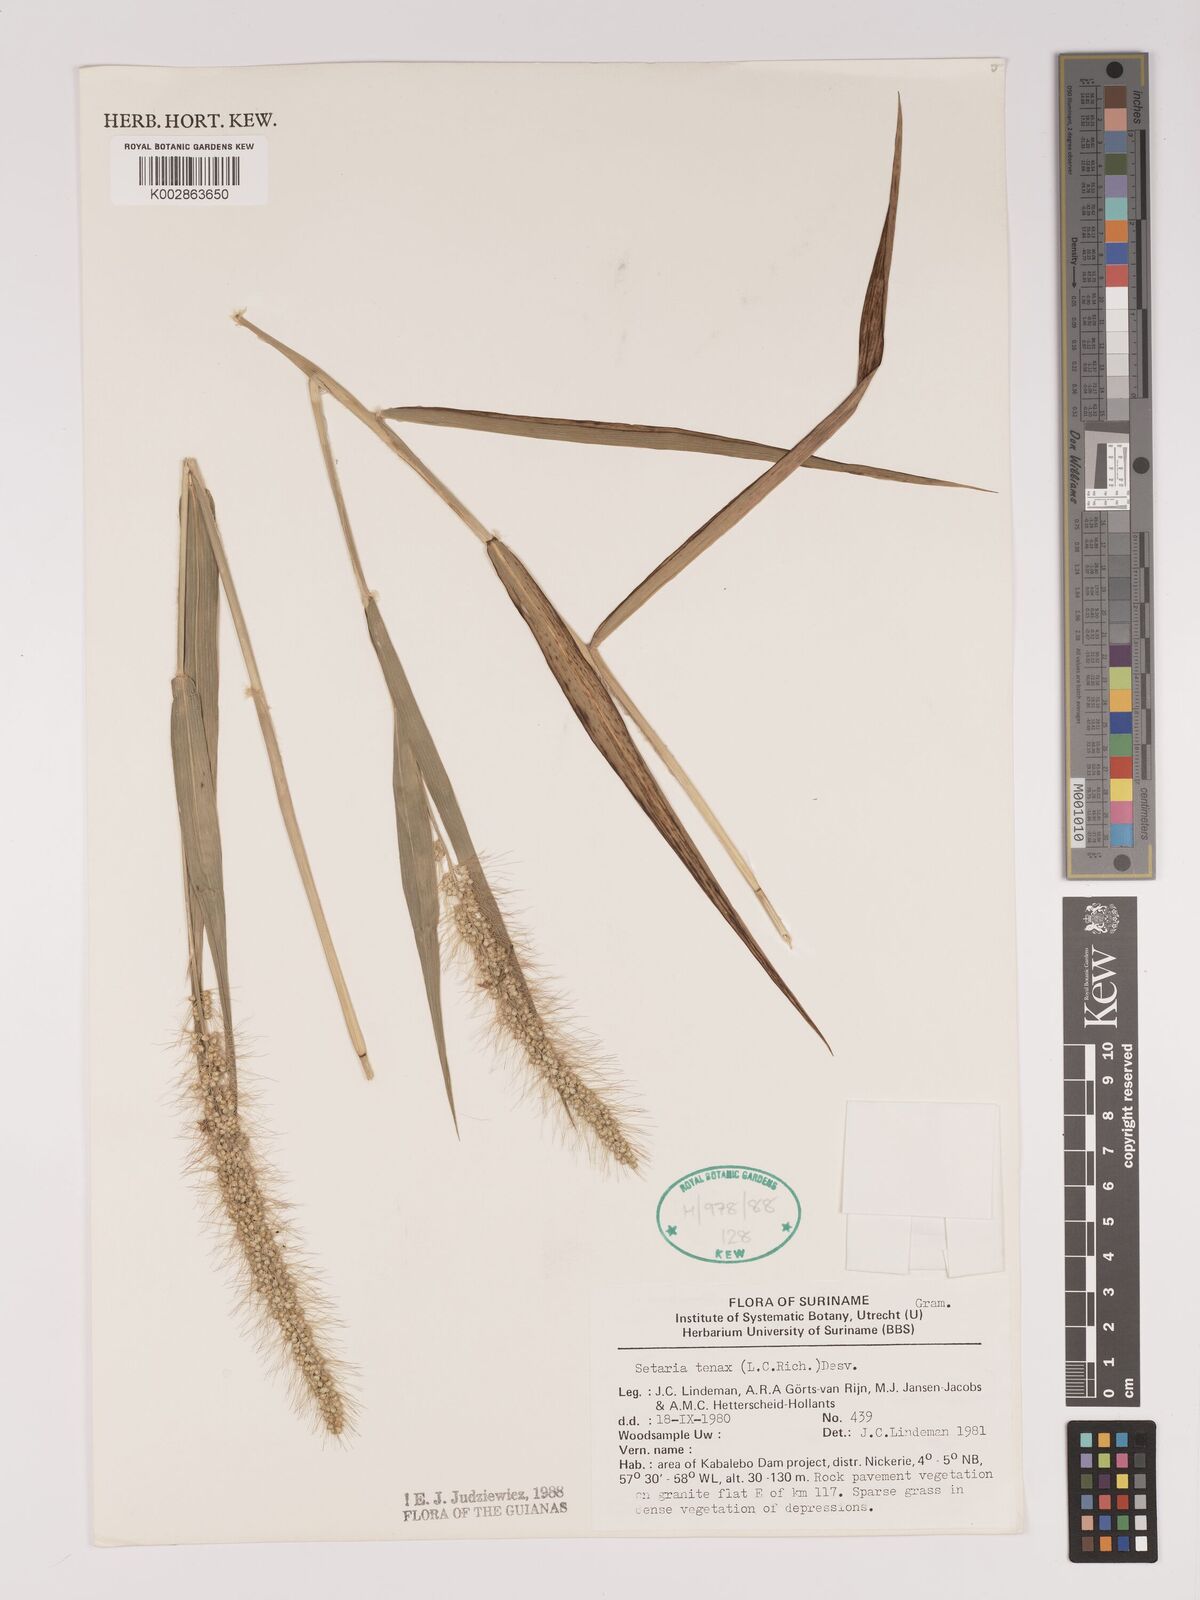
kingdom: Plantae
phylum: Tracheophyta
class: Liliopsida
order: Poales
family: Poaceae
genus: Setaria
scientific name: Setaria tenax
